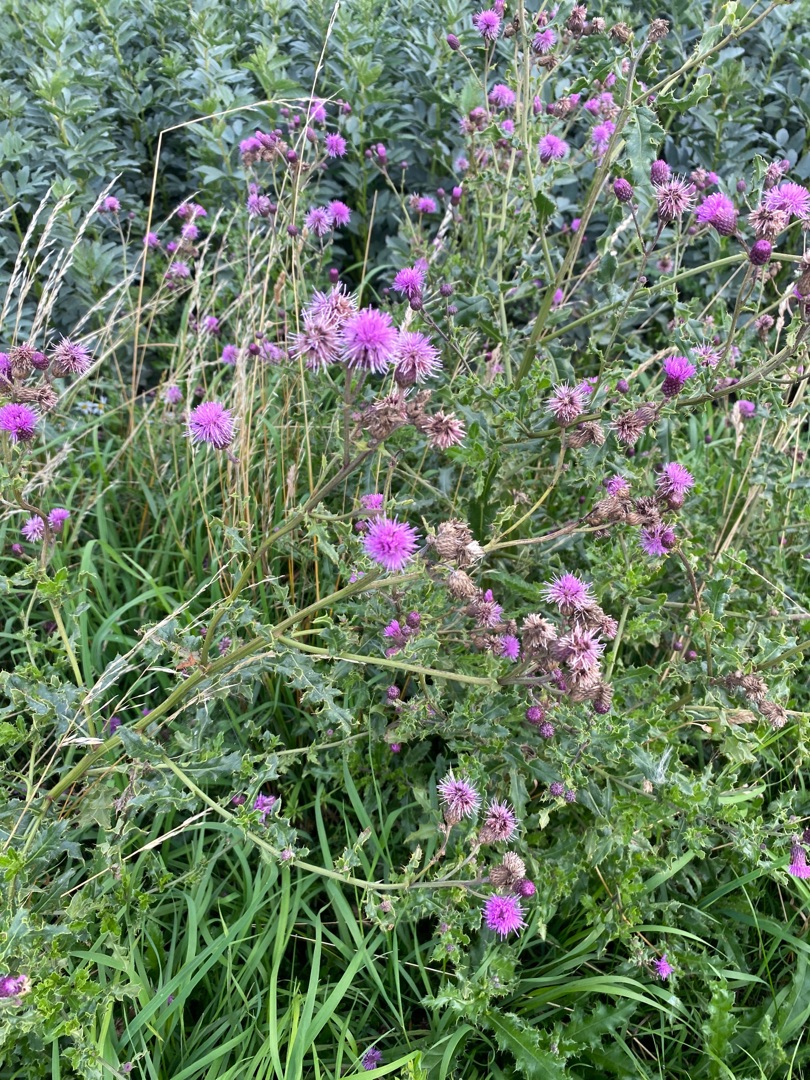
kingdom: Plantae
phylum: Tracheophyta
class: Magnoliopsida
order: Asterales
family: Asteraceae
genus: Cirsium
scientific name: Cirsium arvense
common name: Ager-tidsel
